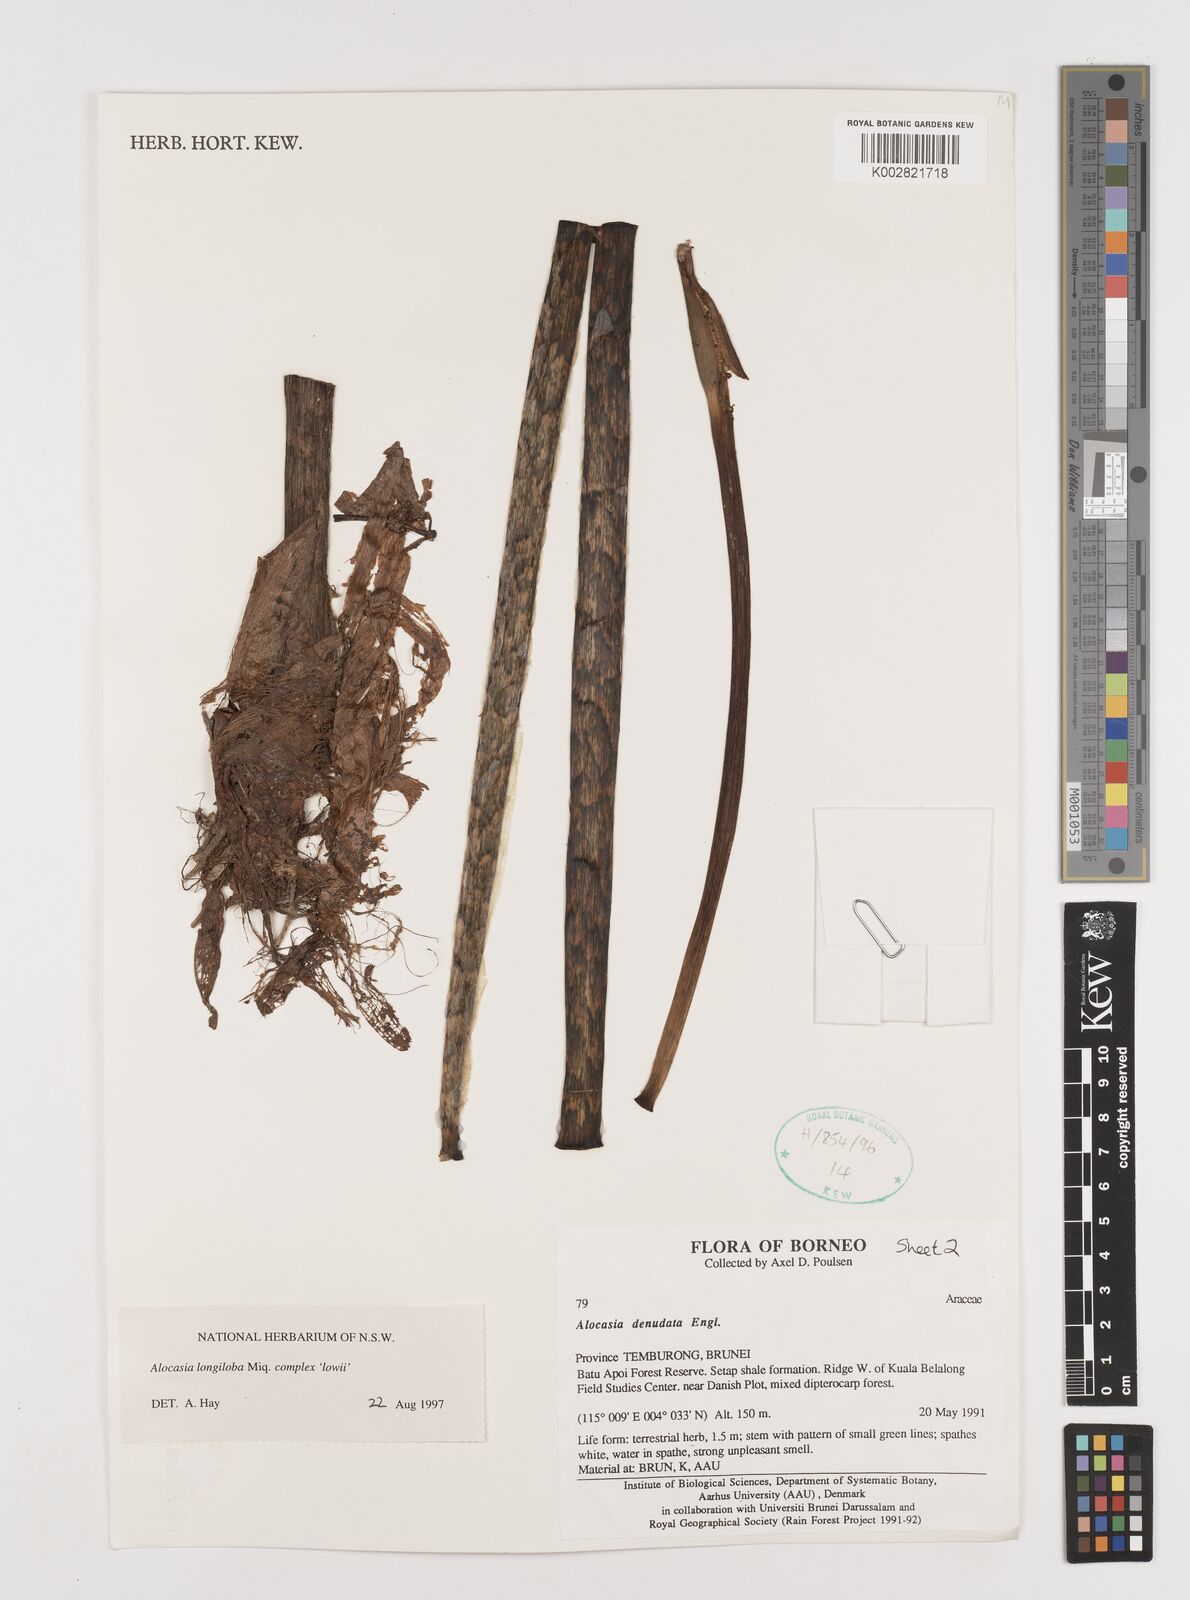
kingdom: Plantae
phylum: Tracheophyta
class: Liliopsida
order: Alismatales
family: Araceae
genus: Alocasia
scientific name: Alocasia longiloba
